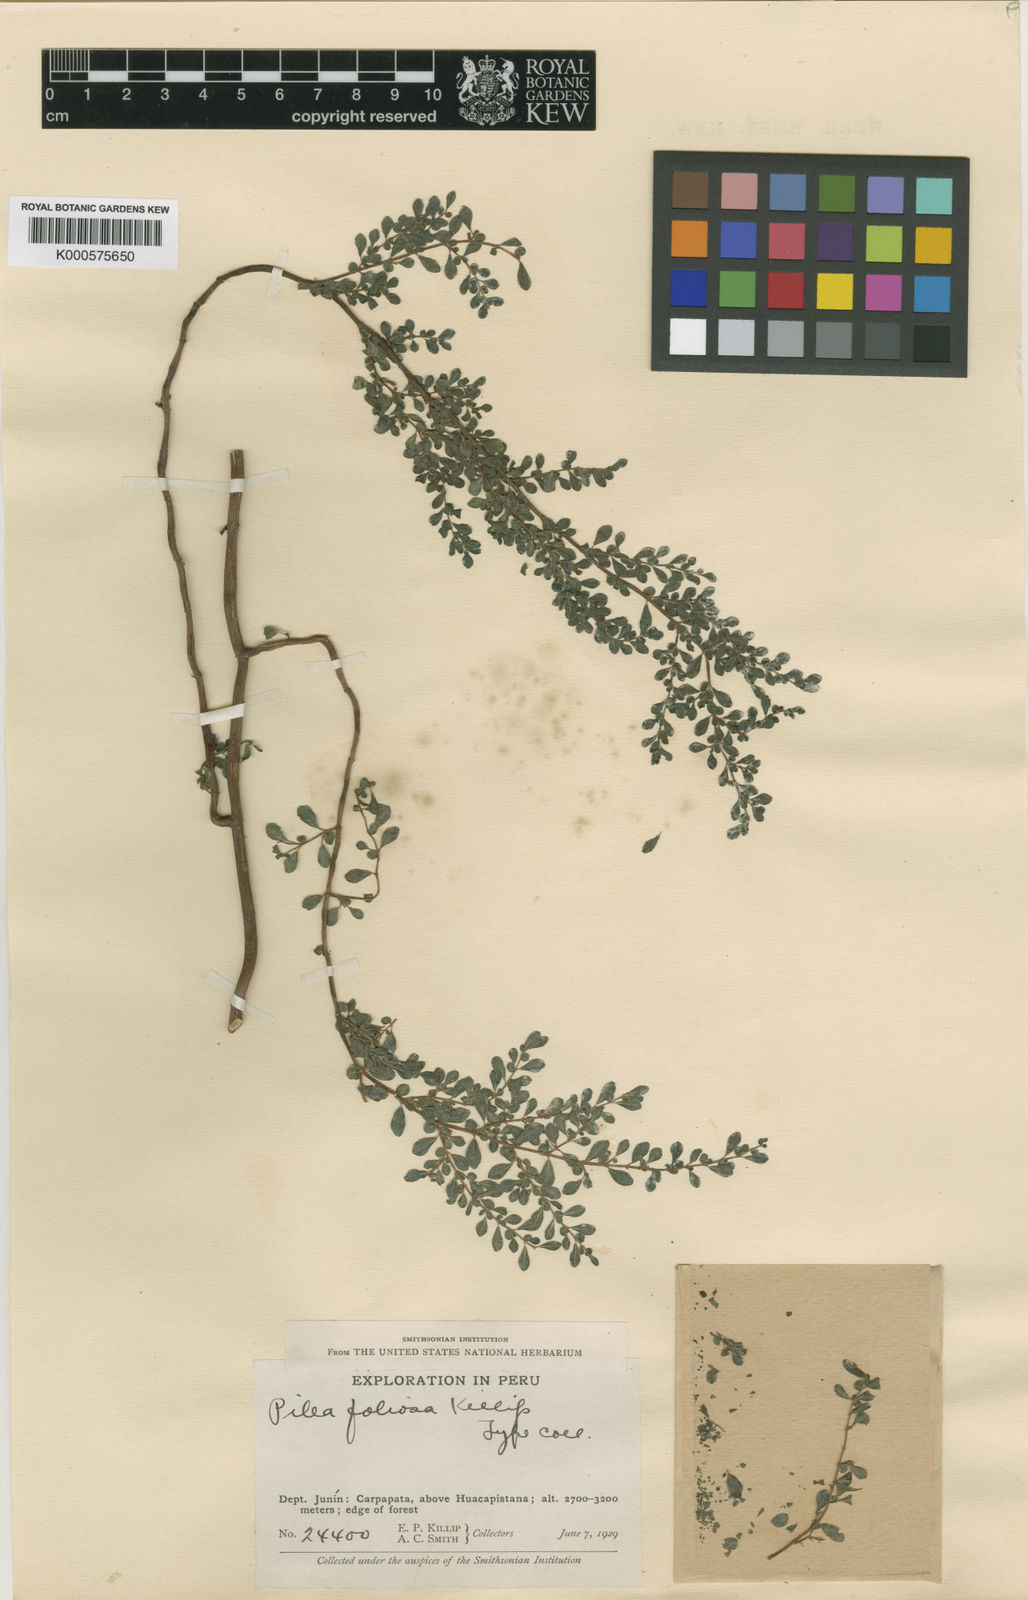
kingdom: Plantae
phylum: Tracheophyta
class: Magnoliopsida
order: Rosales
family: Urticaceae
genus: Pilea
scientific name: Pilea foliosa
